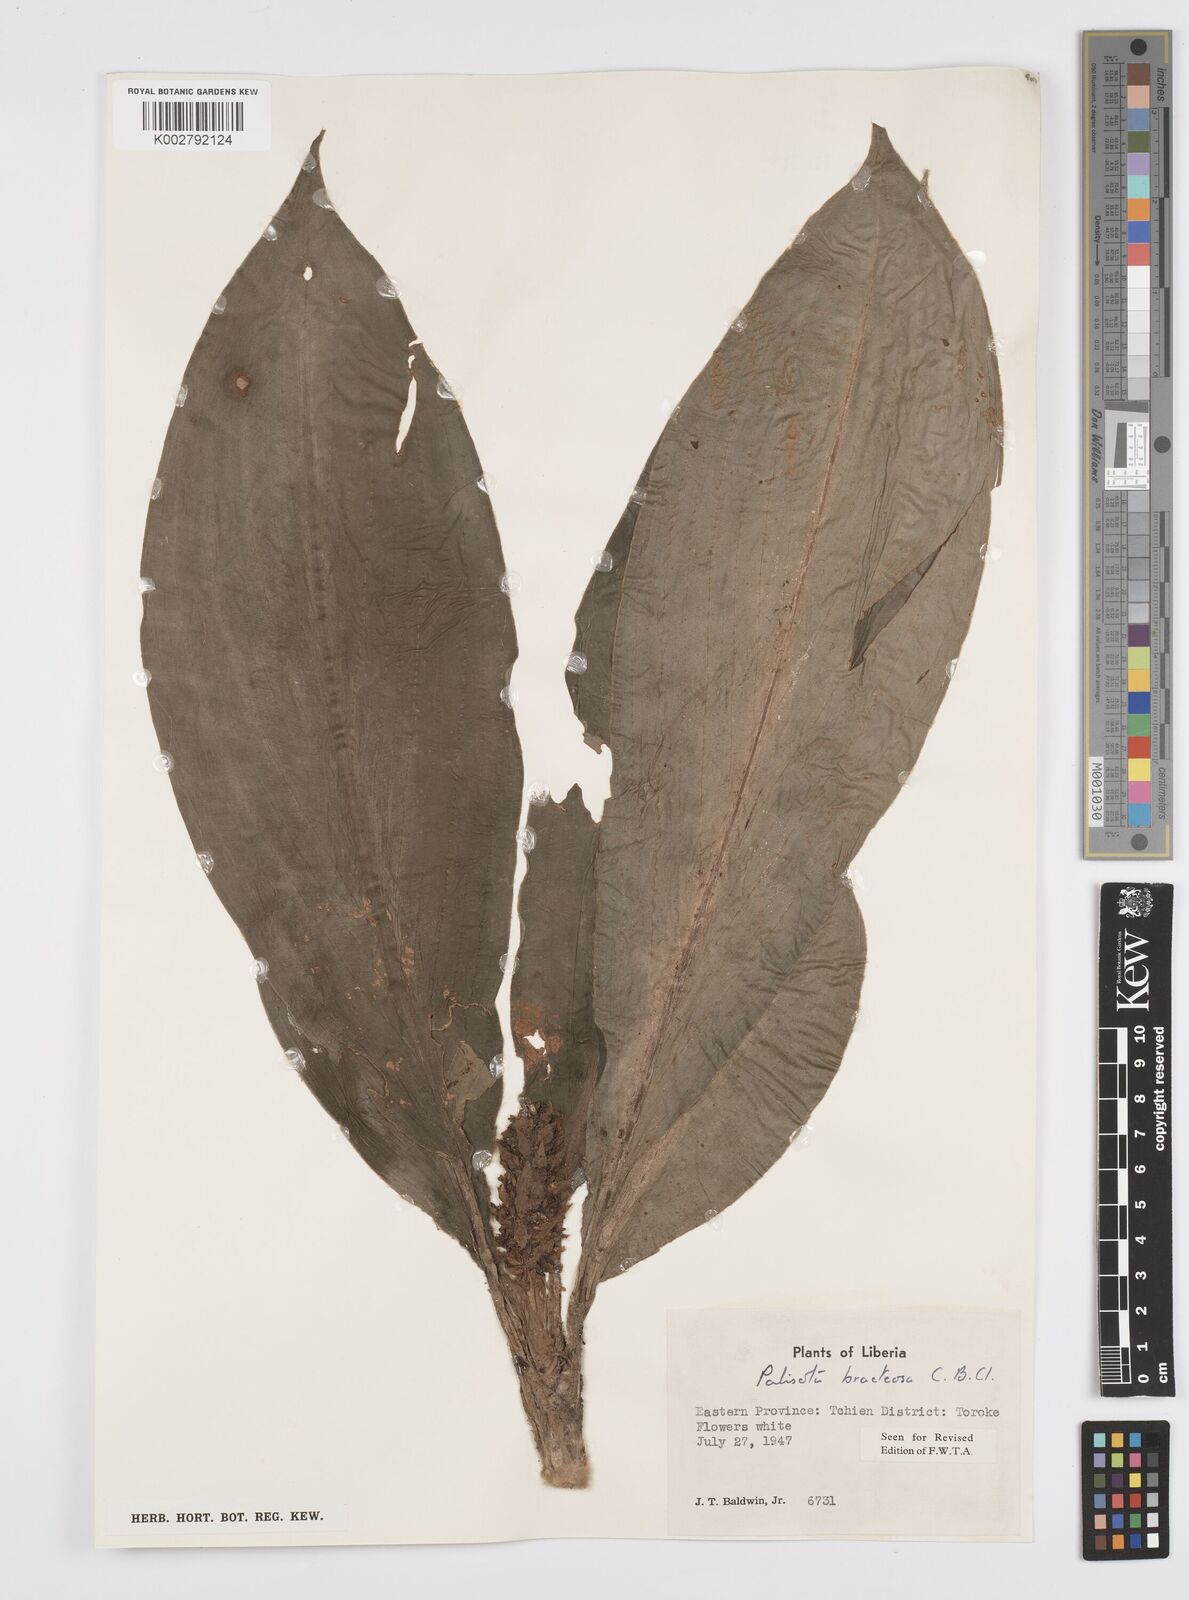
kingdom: Plantae
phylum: Tracheophyta
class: Liliopsida
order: Commelinales
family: Commelinaceae
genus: Palisota
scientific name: Palisota bracteosa
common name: Palisota
